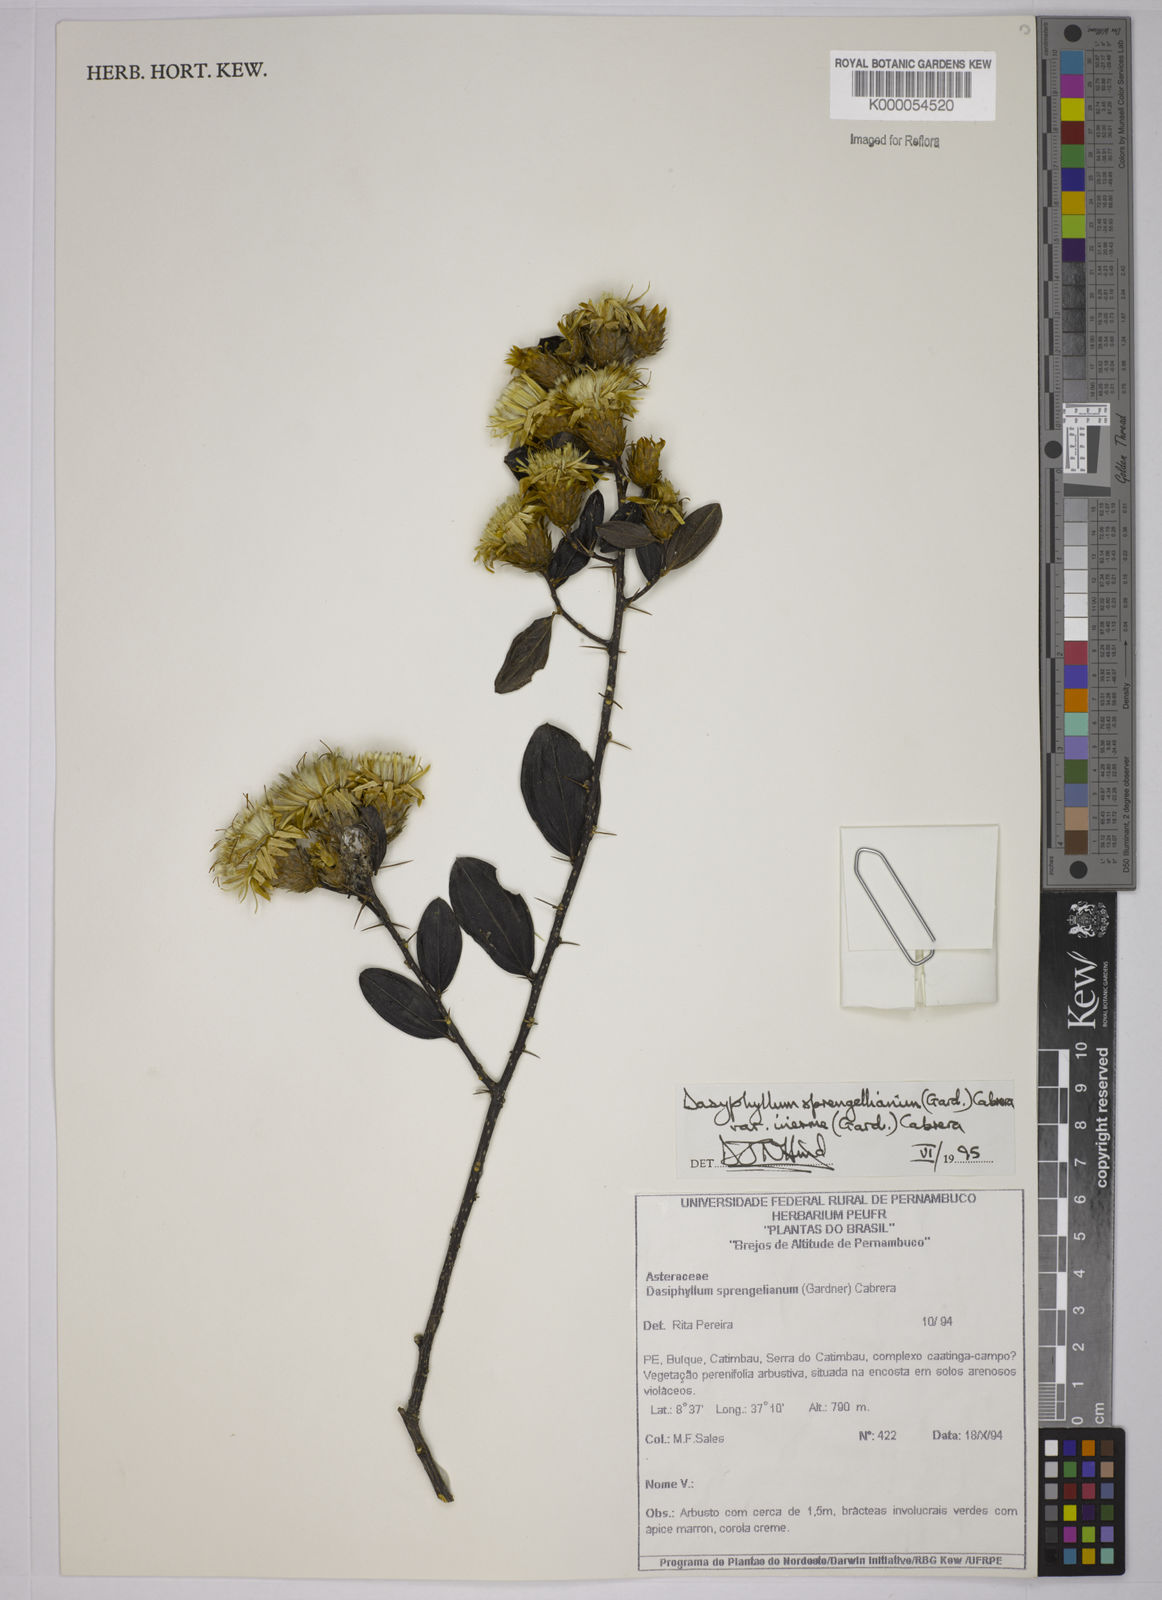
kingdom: Plantae
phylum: Tracheophyta
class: Magnoliopsida
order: Asterales
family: Asteraceae
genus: Dasyphyllum
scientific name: Dasyphyllum sprengelianum
